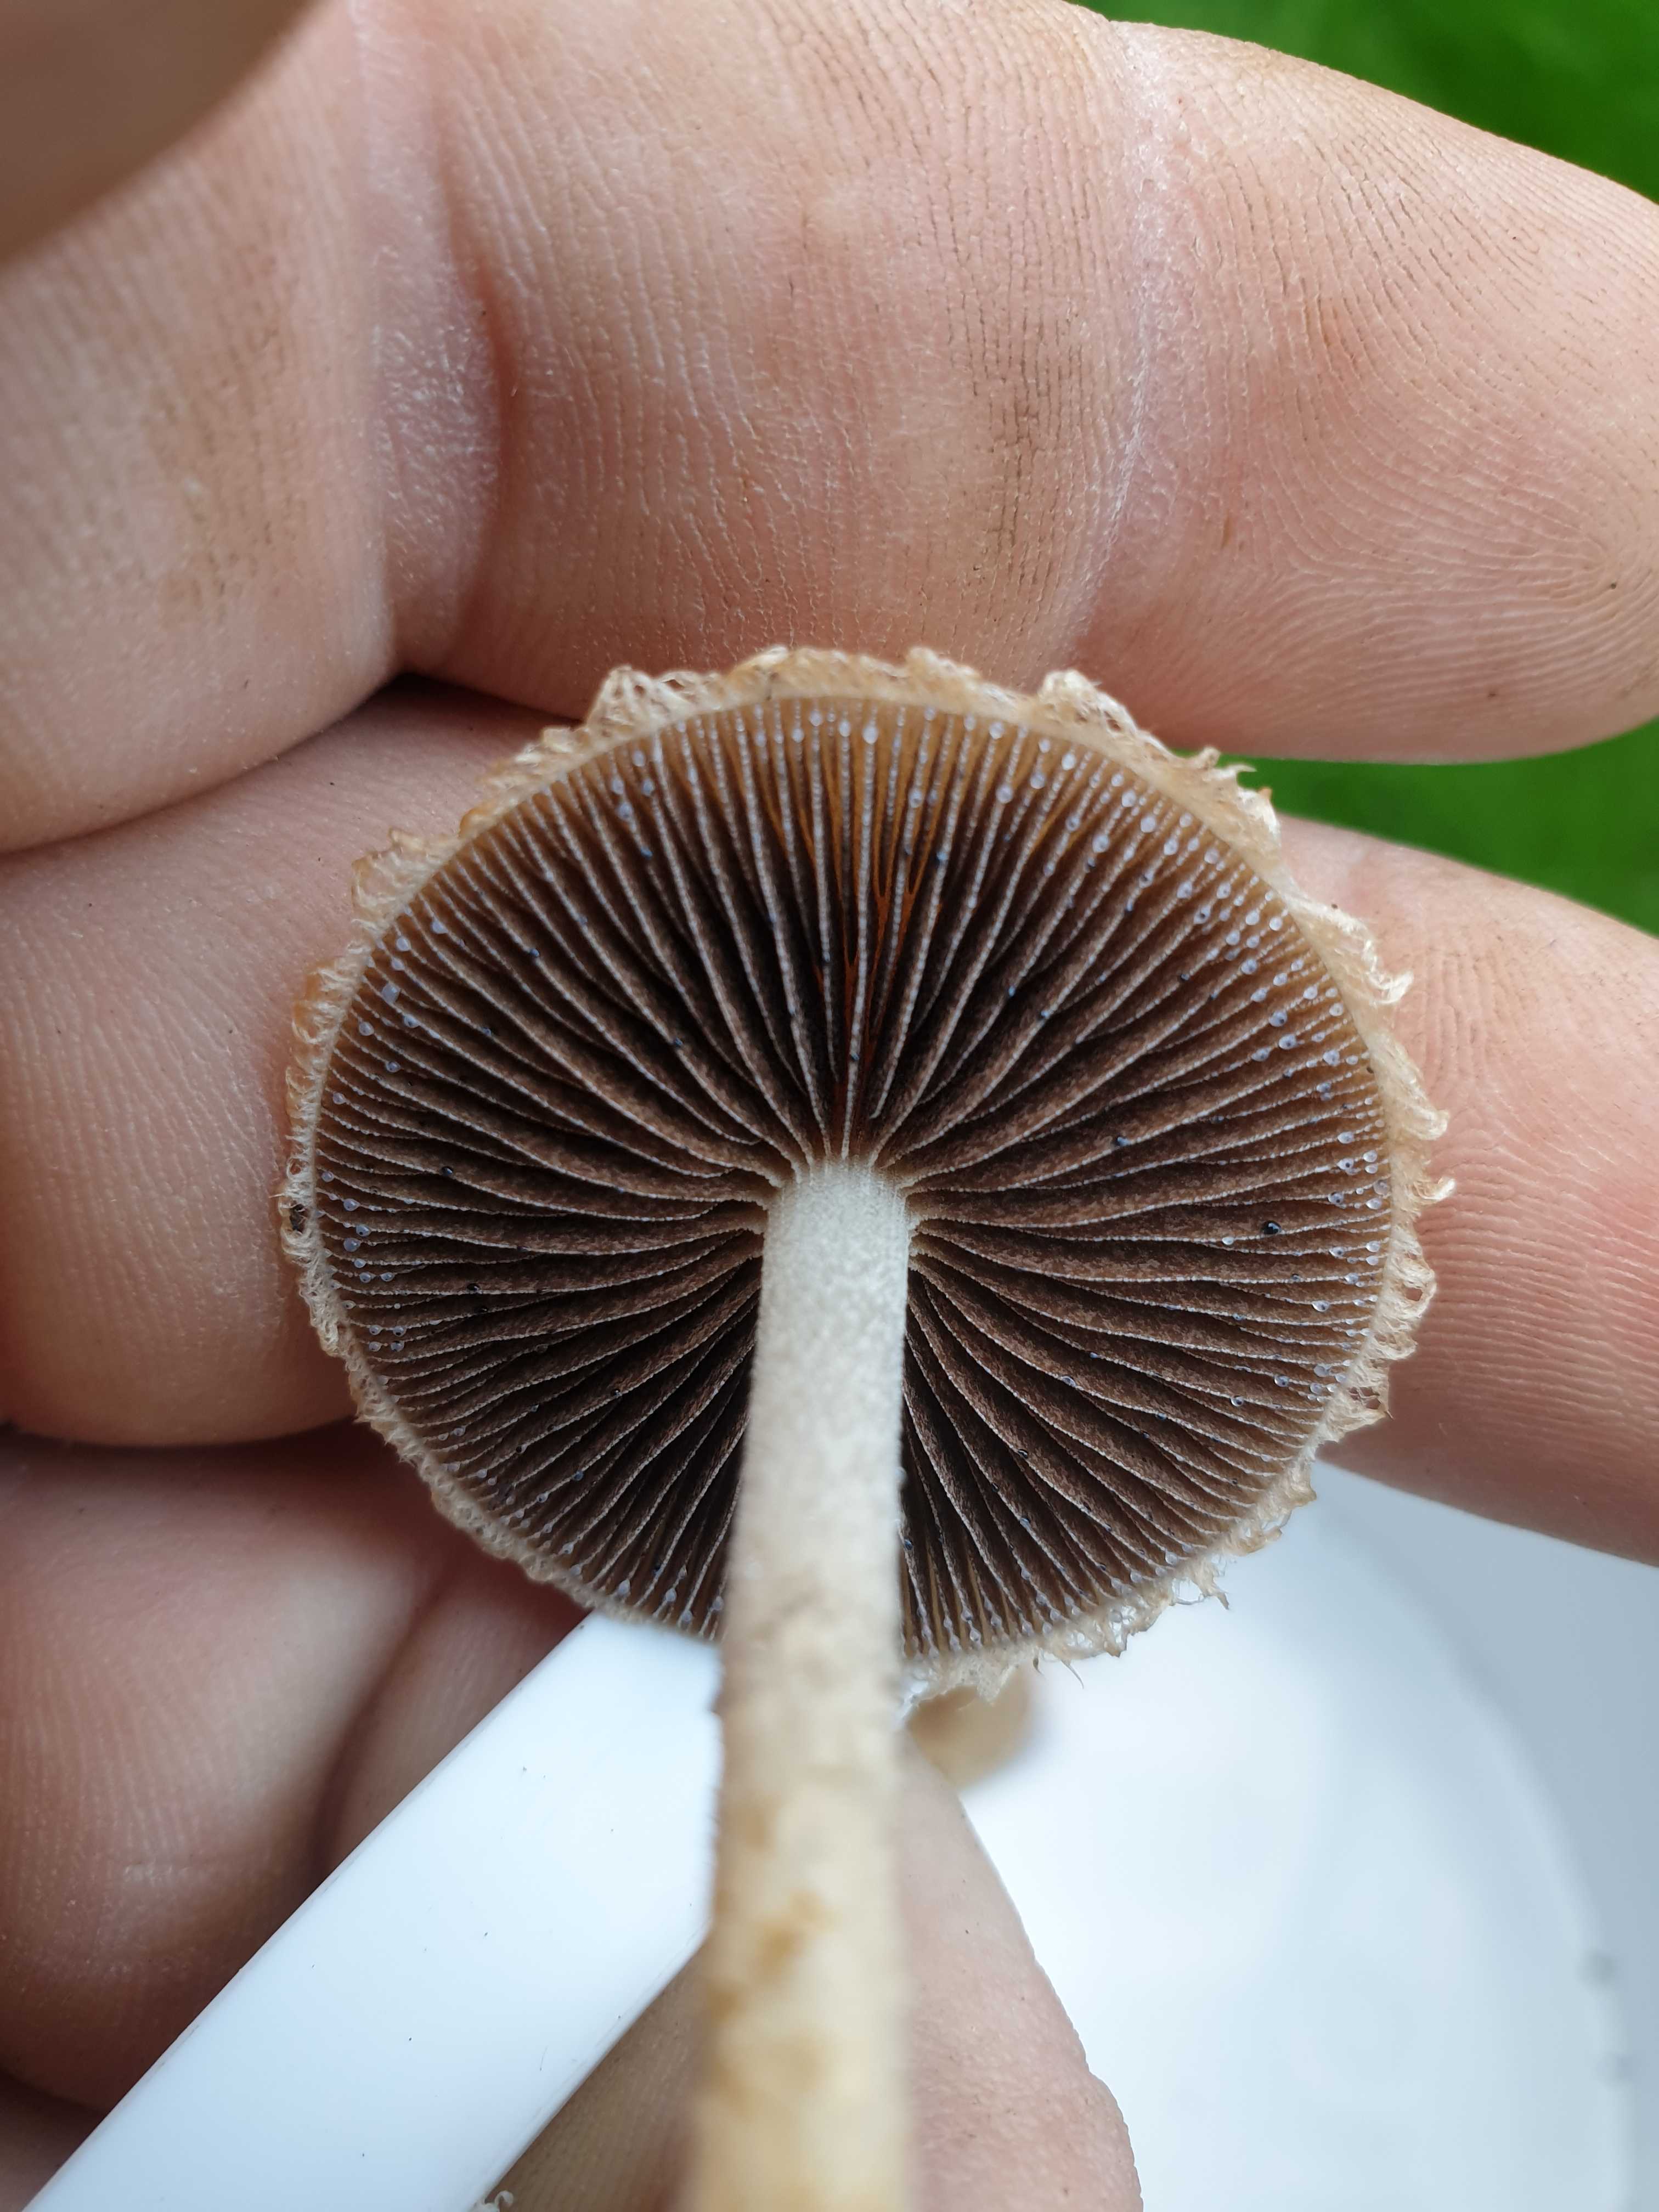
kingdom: Fungi
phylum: Basidiomycota
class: Agaricomycetes
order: Agaricales
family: Psathyrellaceae
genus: Lacrymaria
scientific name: Lacrymaria lacrymabunda
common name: grædende mørkhat
